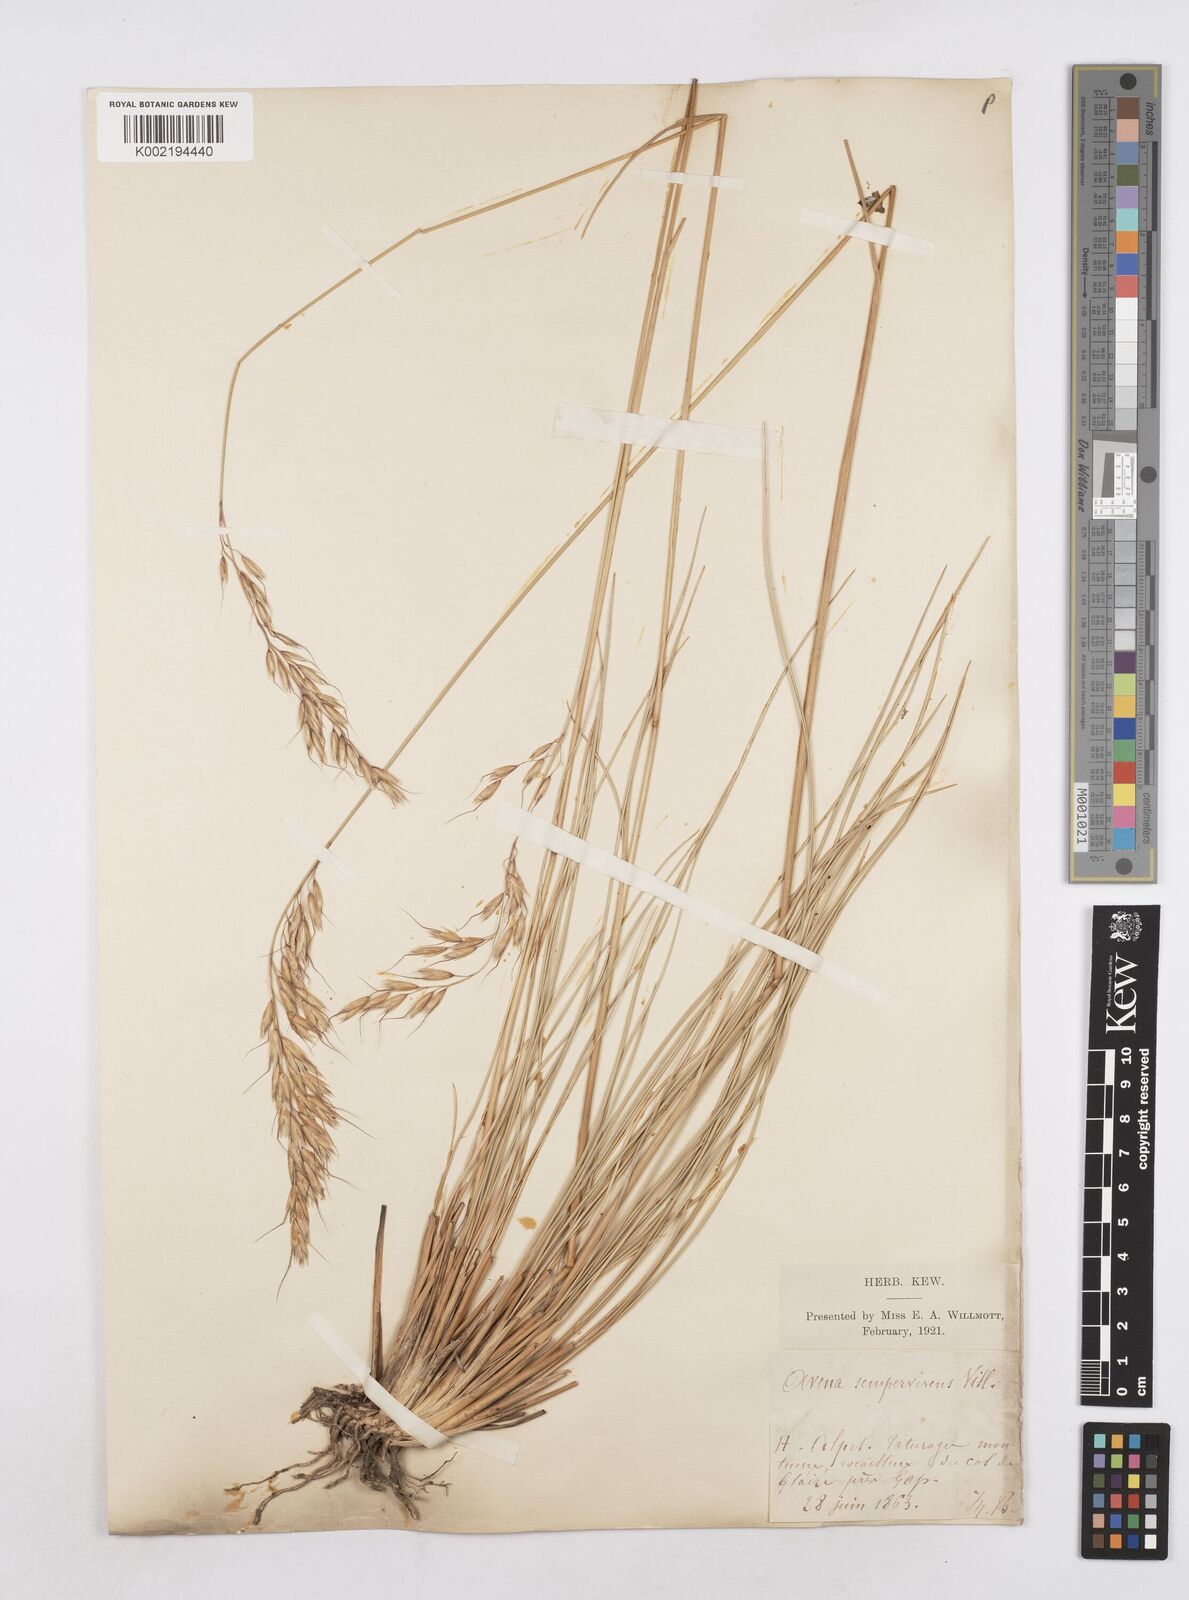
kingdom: Plantae
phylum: Tracheophyta
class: Liliopsida
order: Poales
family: Poaceae
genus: Helictotrichon
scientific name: Helictotrichon sempervirens
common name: Blue oat-grass
